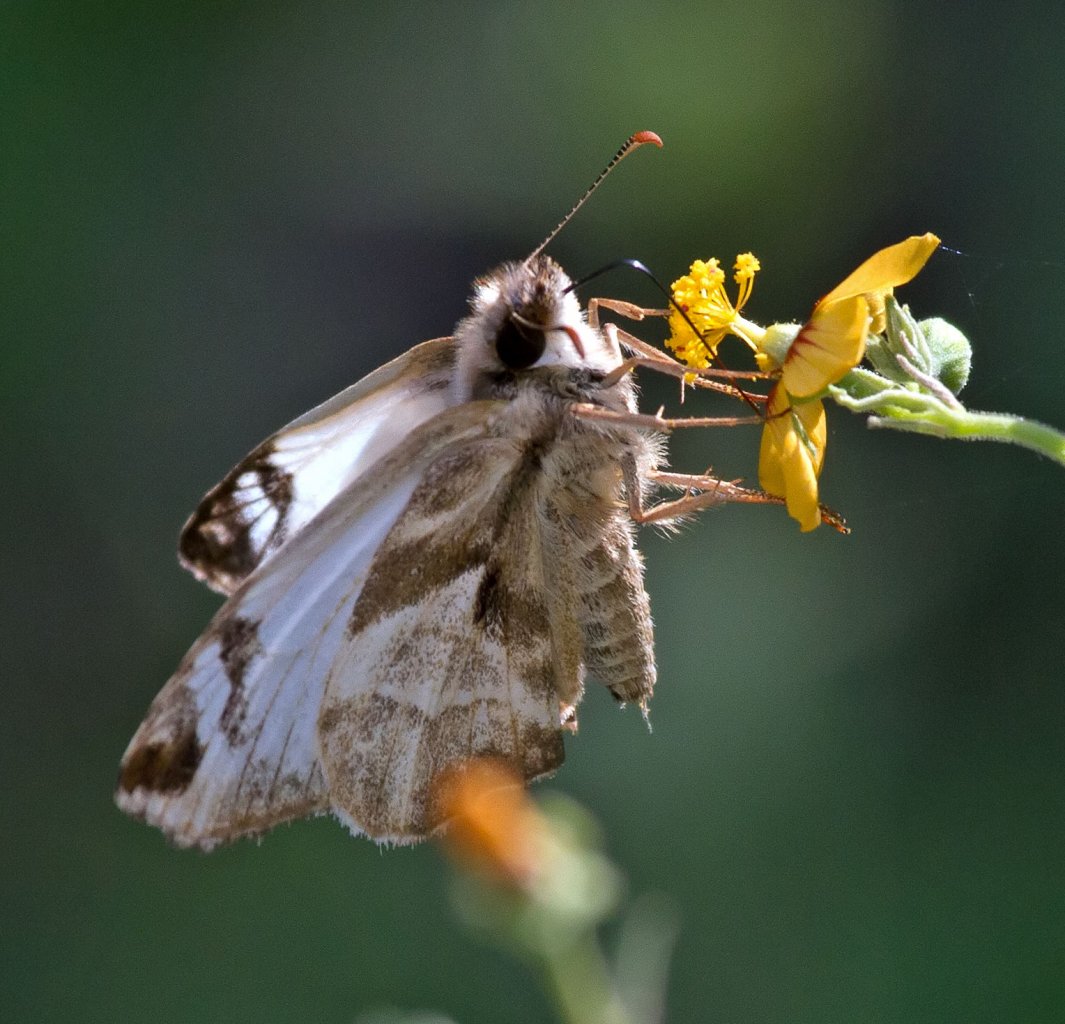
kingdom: Animalia
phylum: Arthropoda
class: Insecta
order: Lepidoptera
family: Hesperiidae
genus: Heliopetes
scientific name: Heliopetes laviana
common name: Laviana White-Skipper
